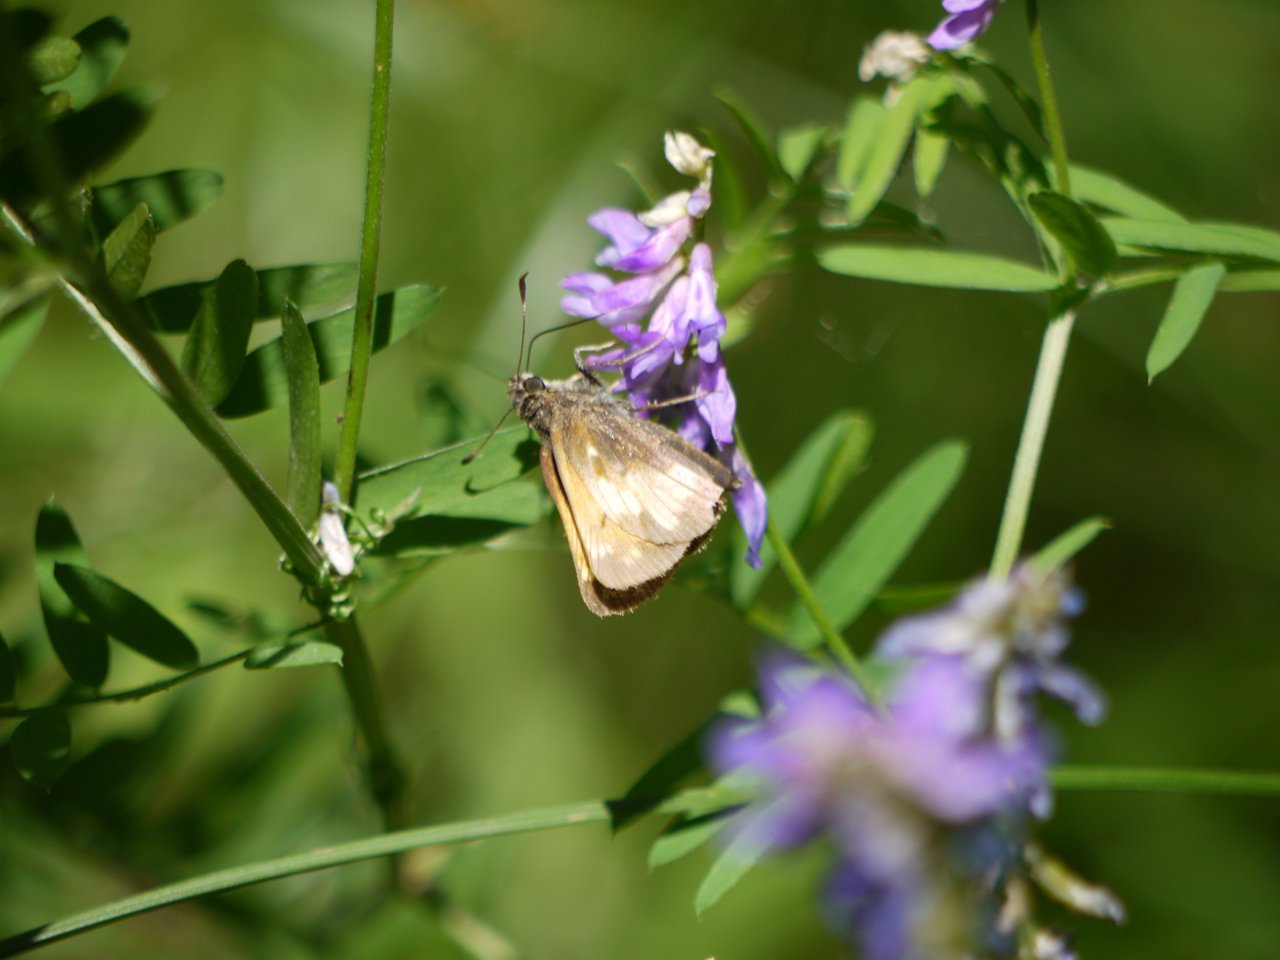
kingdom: Animalia
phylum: Arthropoda
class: Insecta
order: Lepidoptera
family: Hesperiidae
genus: Lon
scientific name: Lon hobomok
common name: Hobomok Skipper
